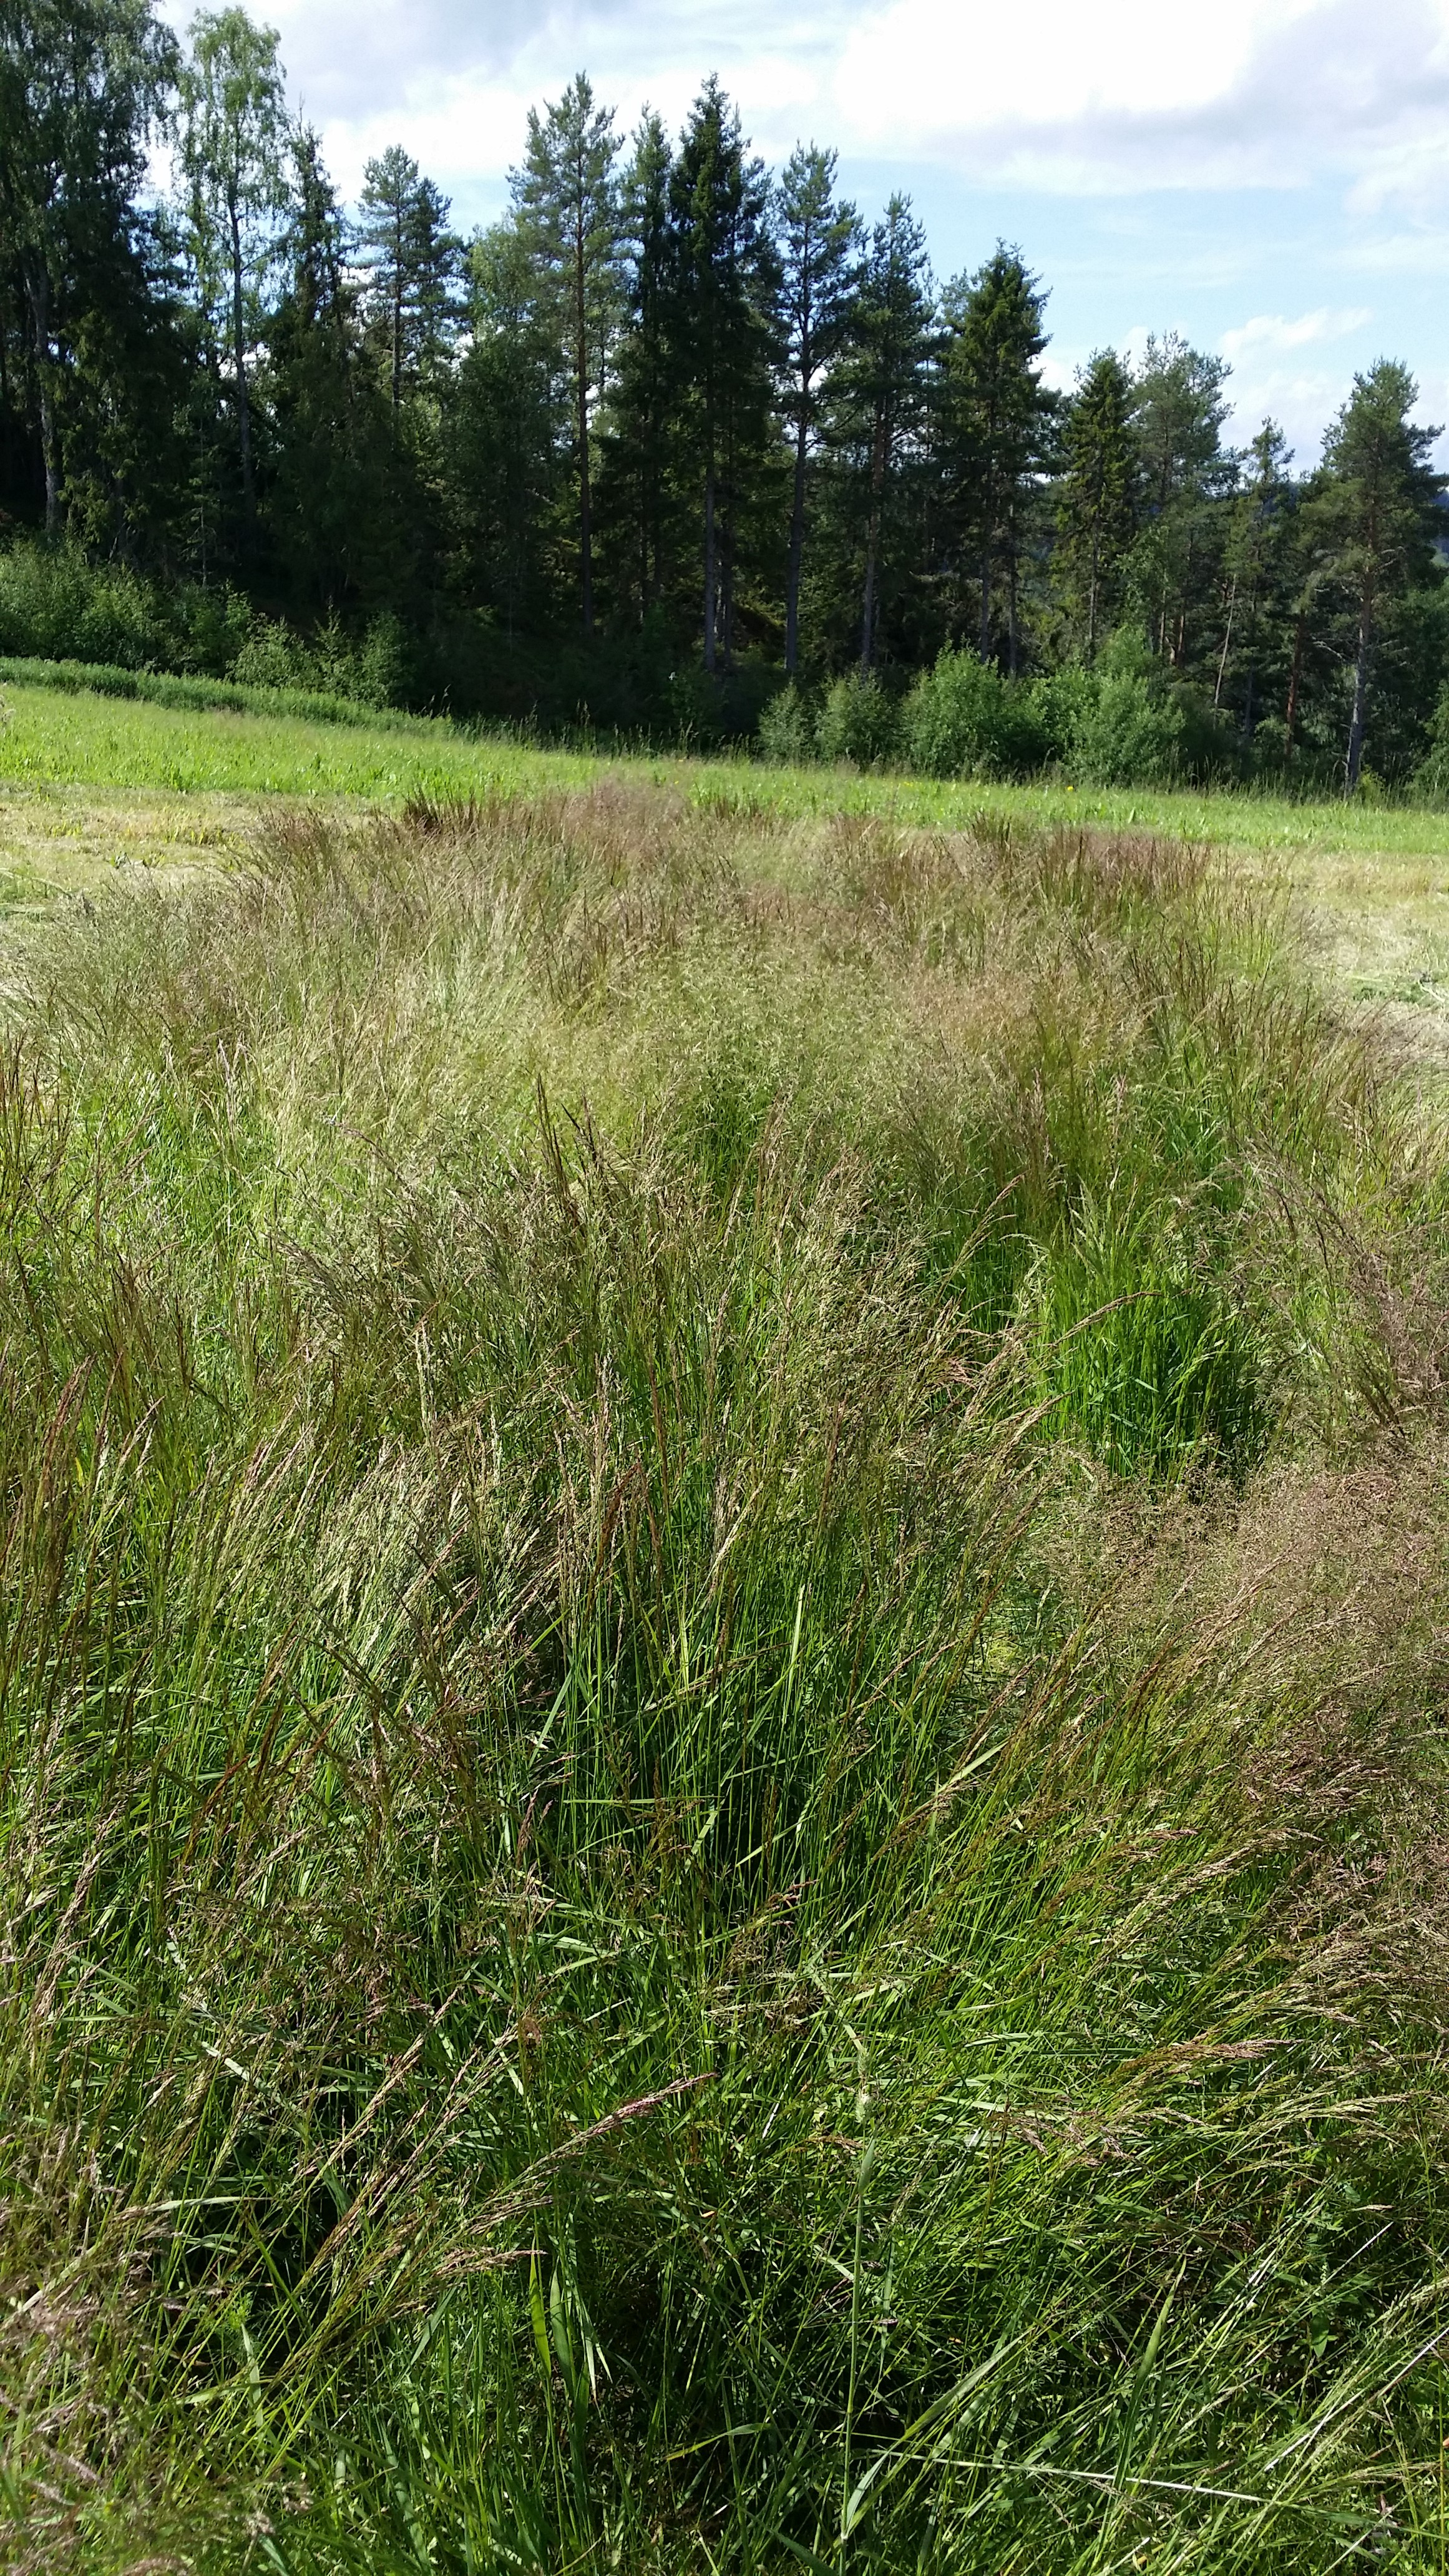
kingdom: Plantae
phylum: Tracheophyta
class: Liliopsida
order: Poales
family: Poaceae
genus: Agrostis
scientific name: Agrostis capillaris
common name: Colonial bentgrass
